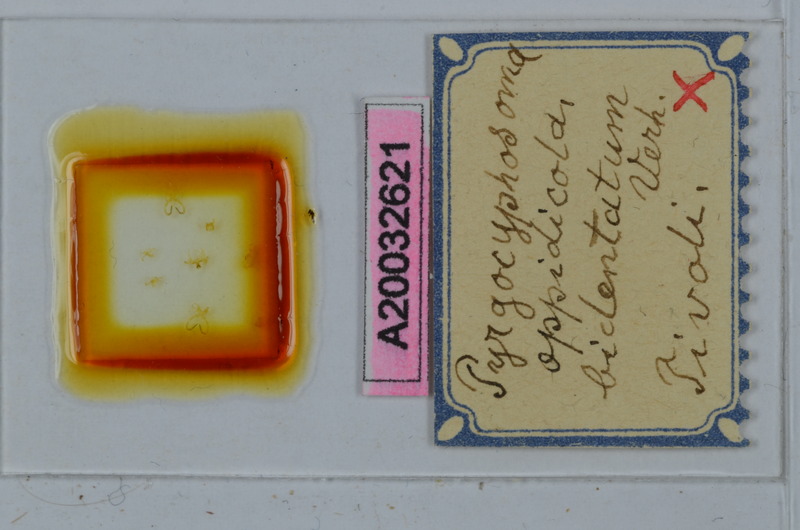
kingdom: Animalia
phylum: Arthropoda
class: Diplopoda
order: Chordeumatida
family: Craspedosomatidae
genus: Pyrgocyphosoma
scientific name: Pyrgocyphosoma bidentatum
